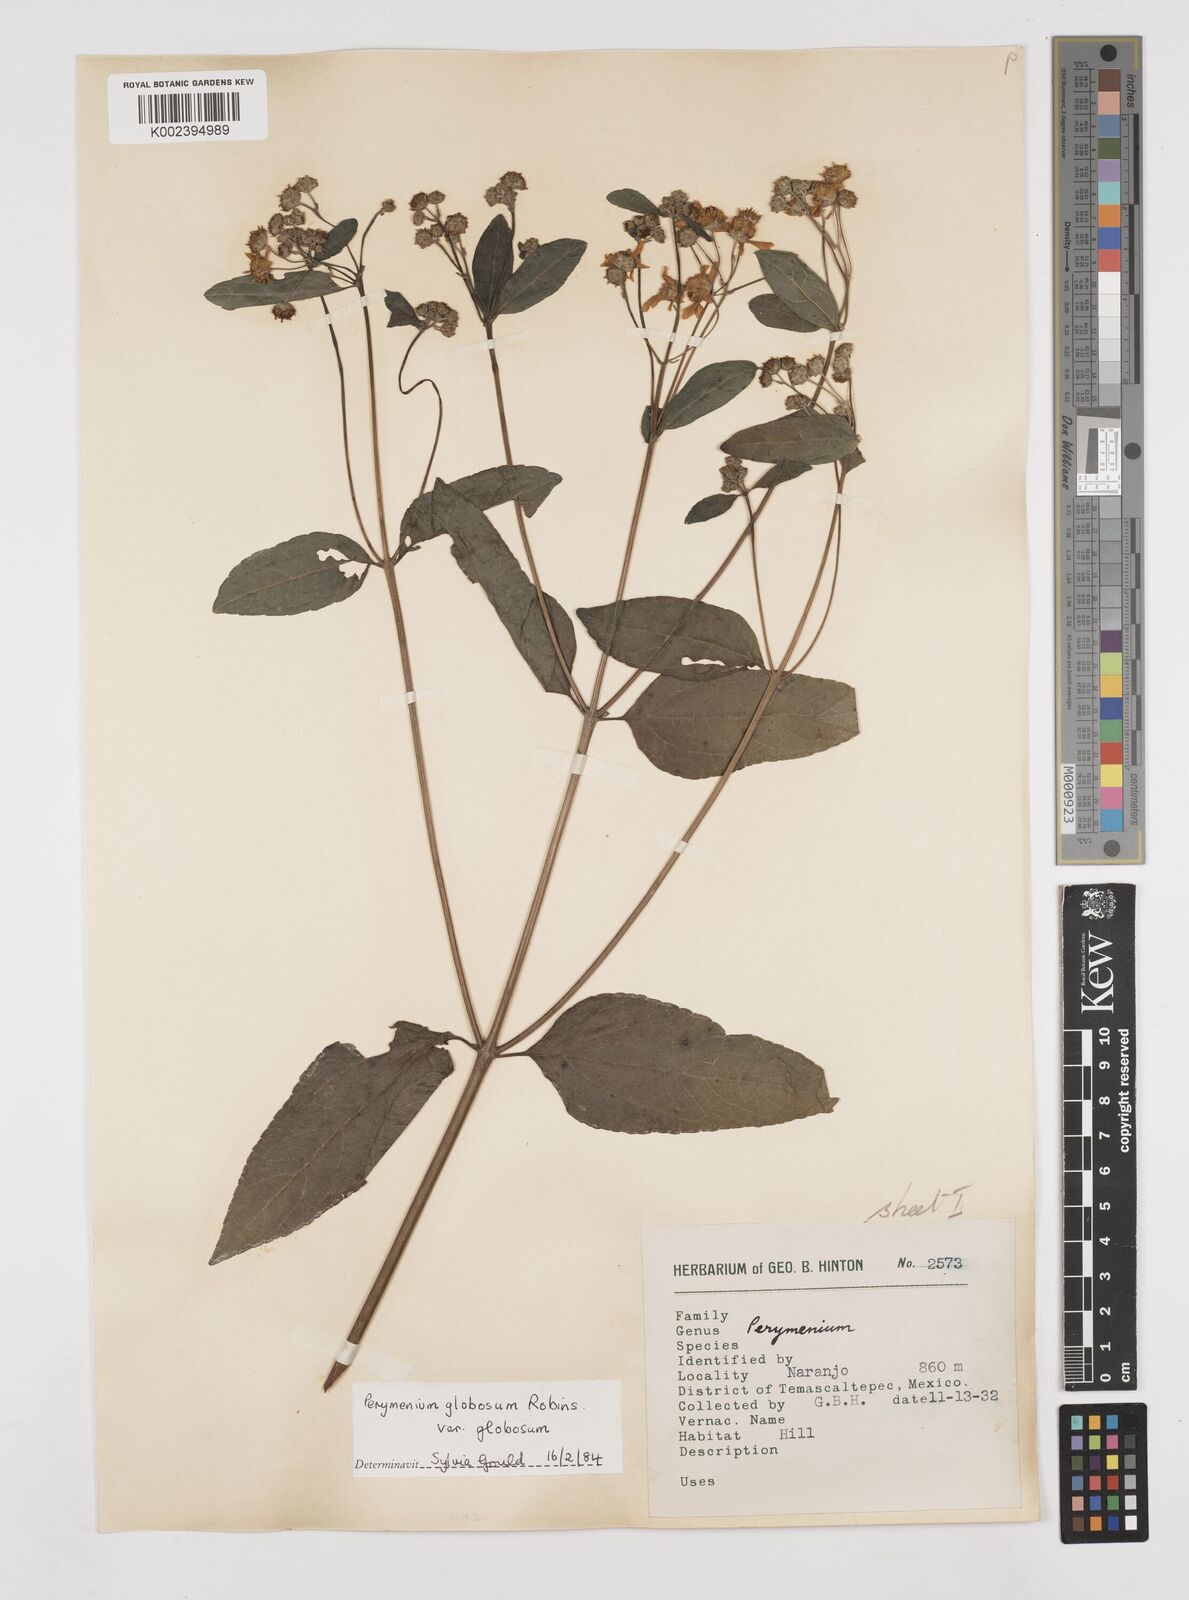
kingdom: Plantae
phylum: Tracheophyta
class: Magnoliopsida
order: Asterales
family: Asteraceae
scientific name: Asteraceae
